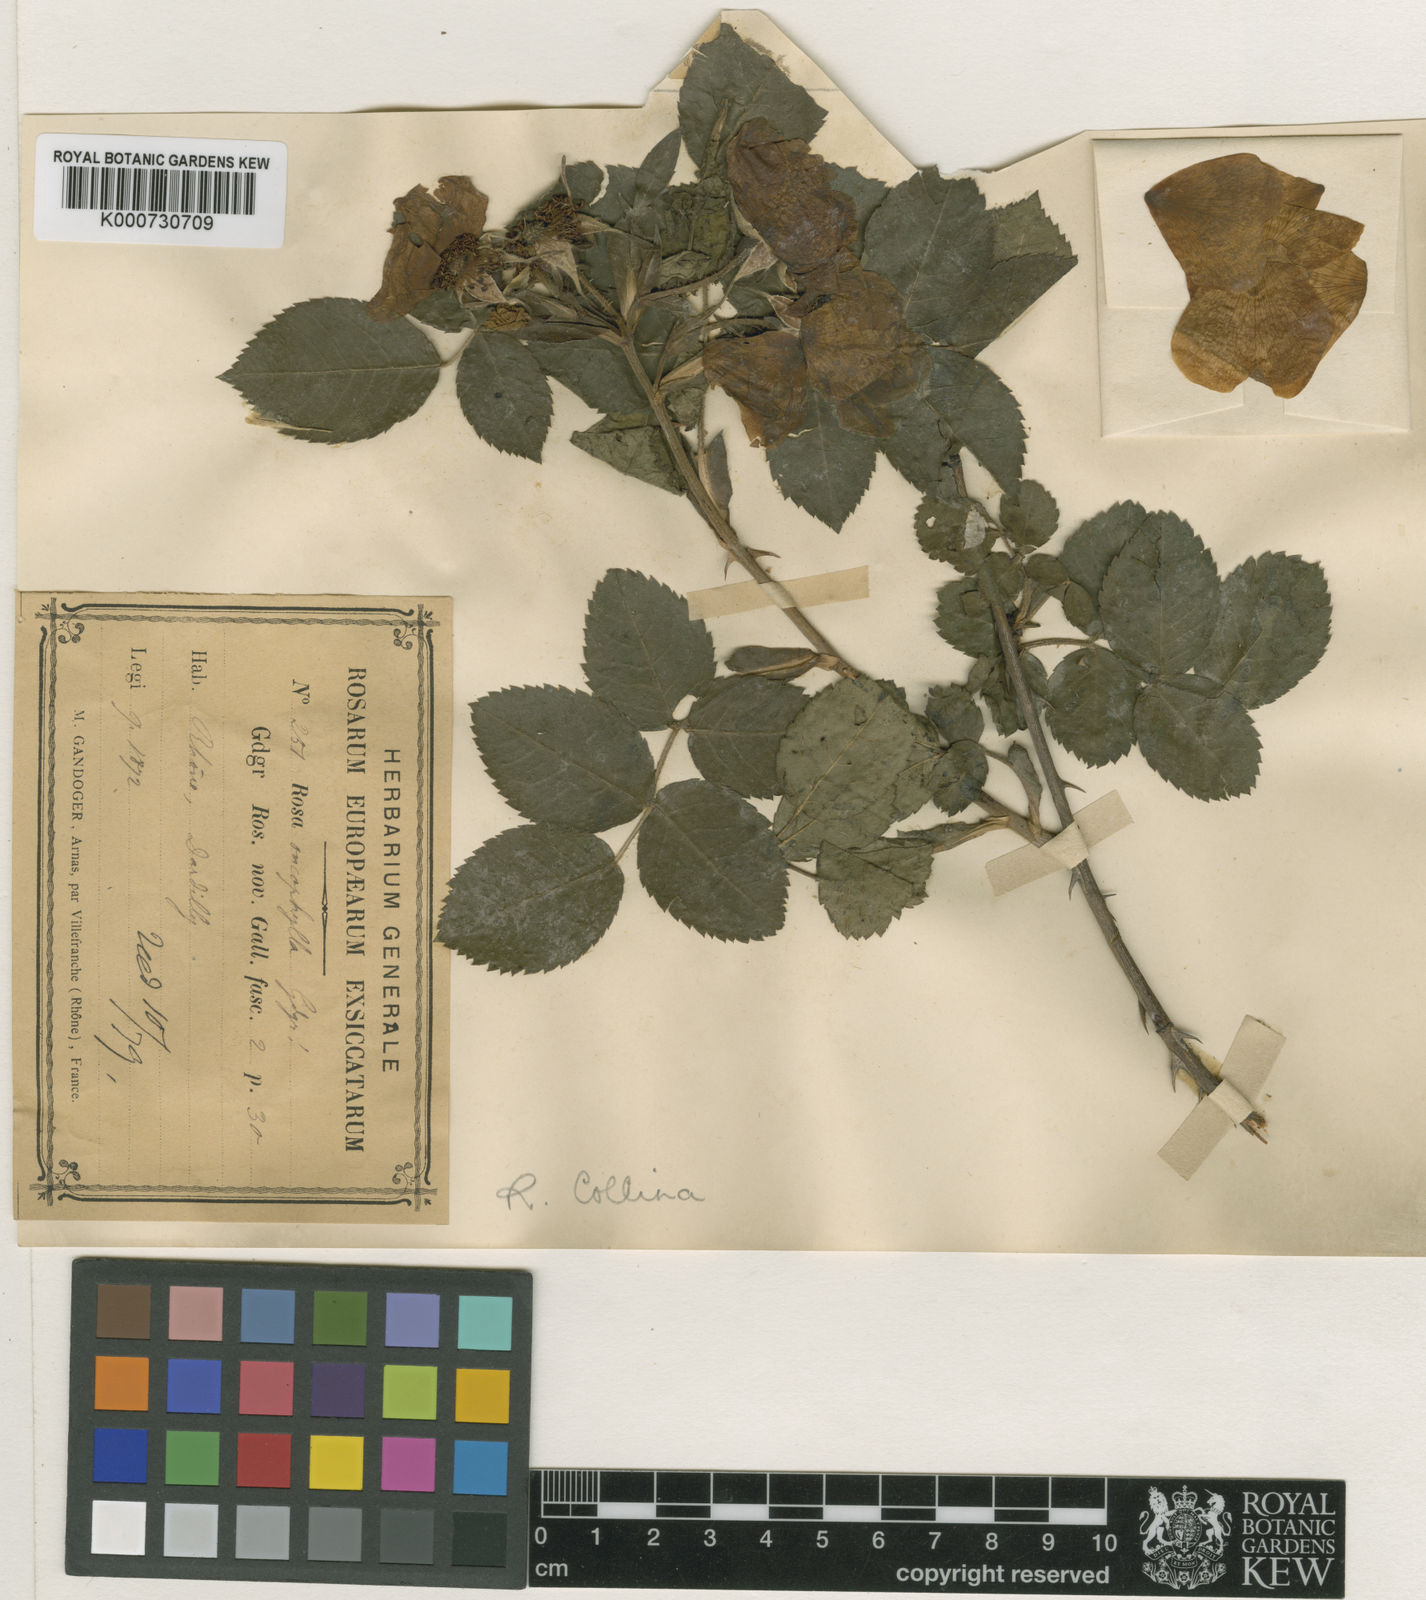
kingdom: Plantae
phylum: Tracheophyta
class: Magnoliopsida
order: Rosales
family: Rosaceae
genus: Rosa
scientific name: Rosa stylosa
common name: Short-styled field-rose
